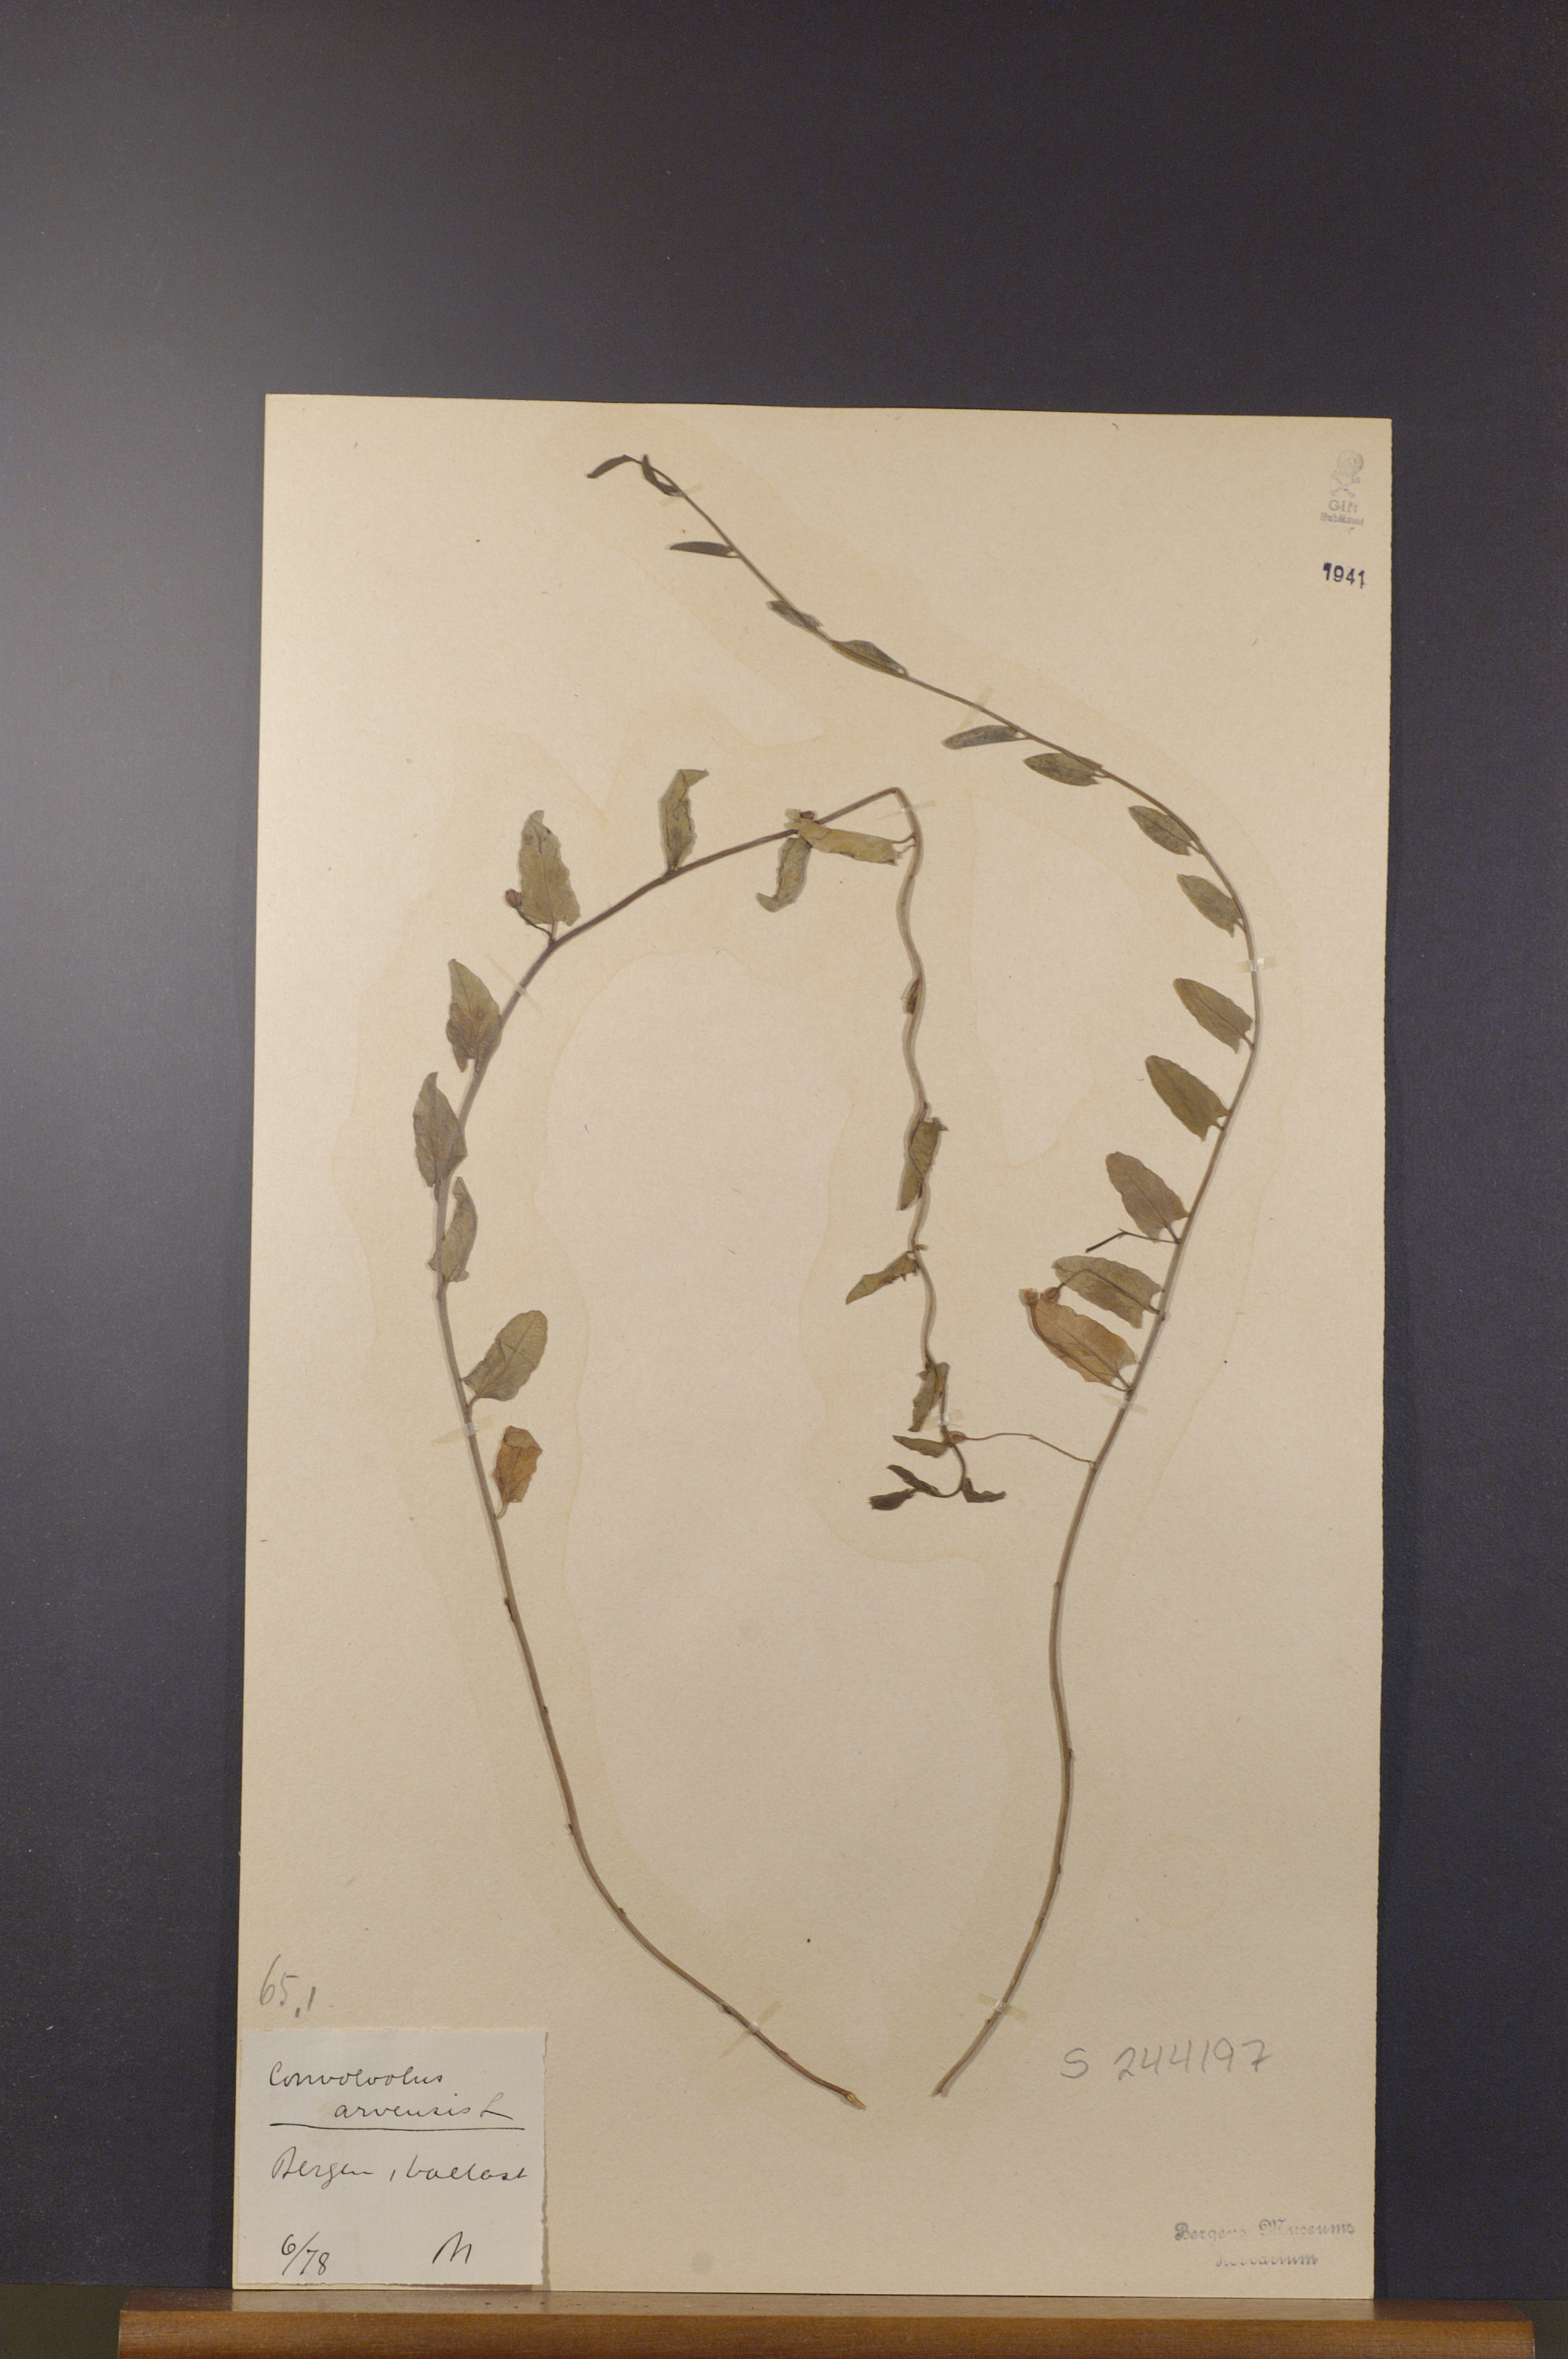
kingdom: Plantae
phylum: Tracheophyta
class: Magnoliopsida
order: Solanales
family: Convolvulaceae
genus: Convolvulus
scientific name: Convolvulus arvensis
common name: Field bindweed
